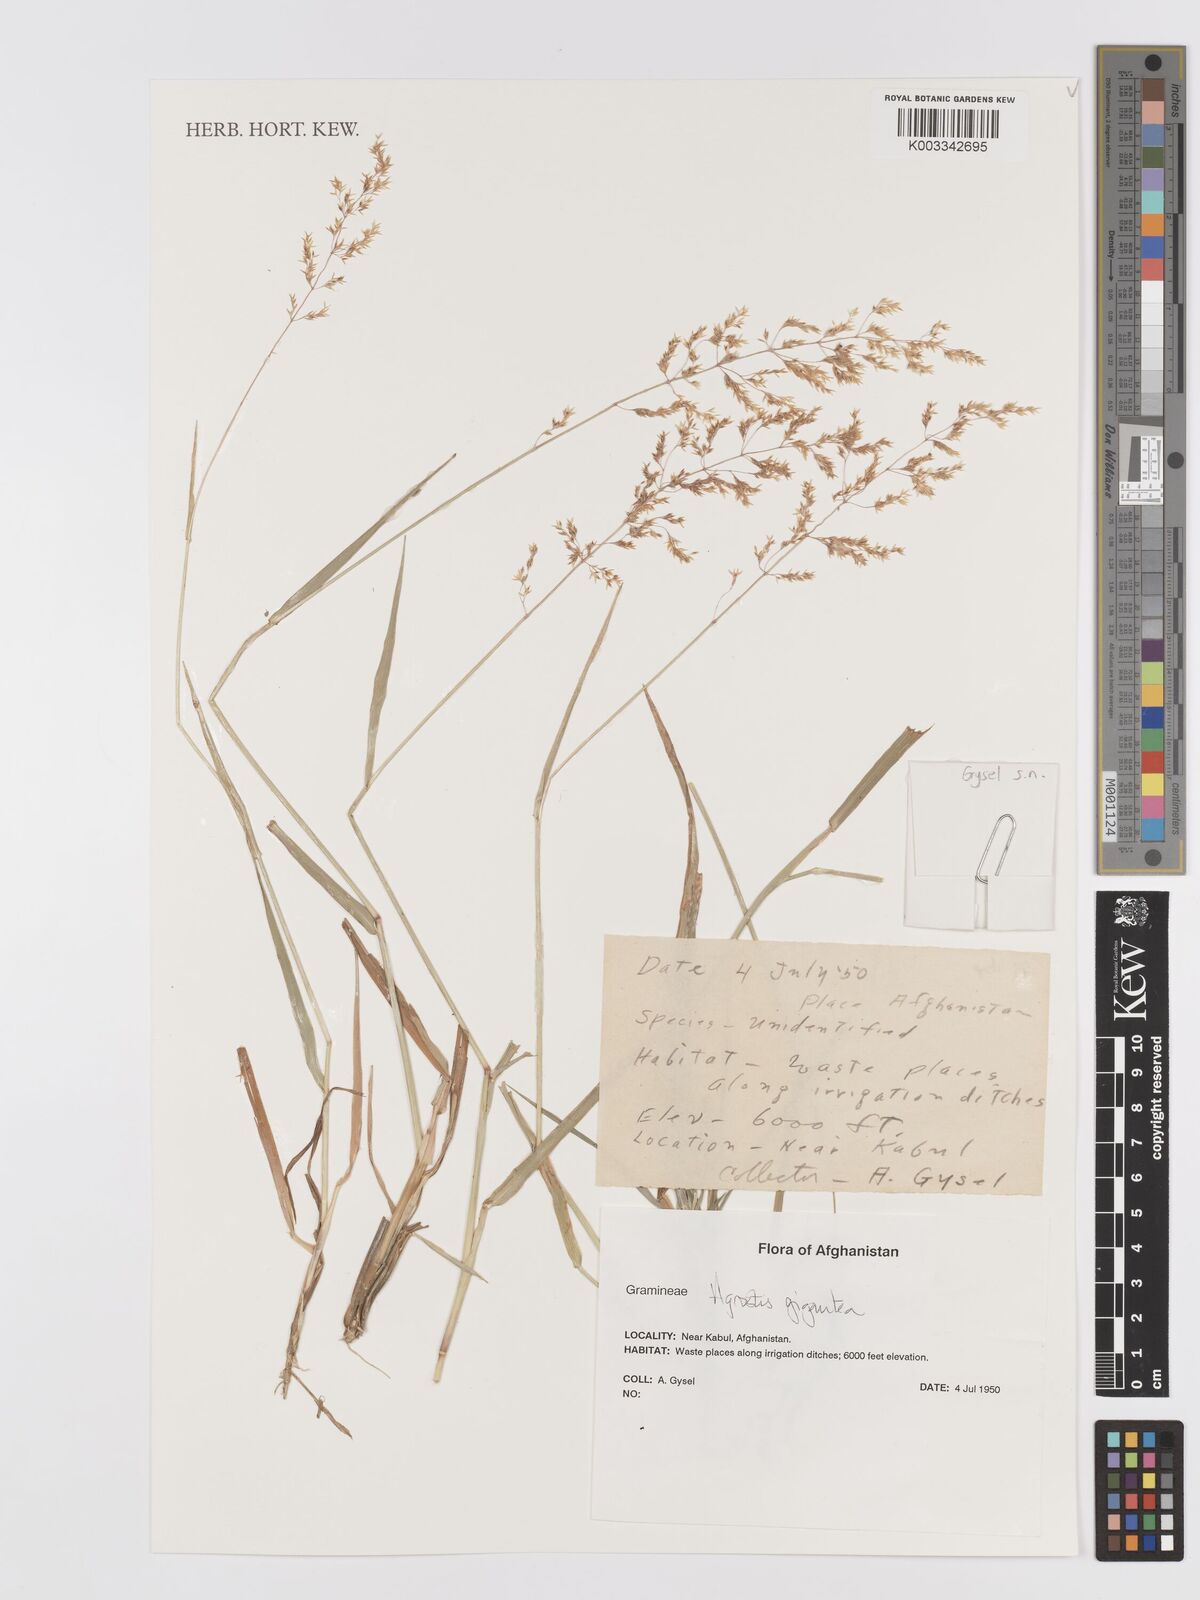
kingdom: Plantae
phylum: Tracheophyta
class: Liliopsida
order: Poales
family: Poaceae
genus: Agrostis
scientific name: Agrostis gigantea
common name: Black bent
